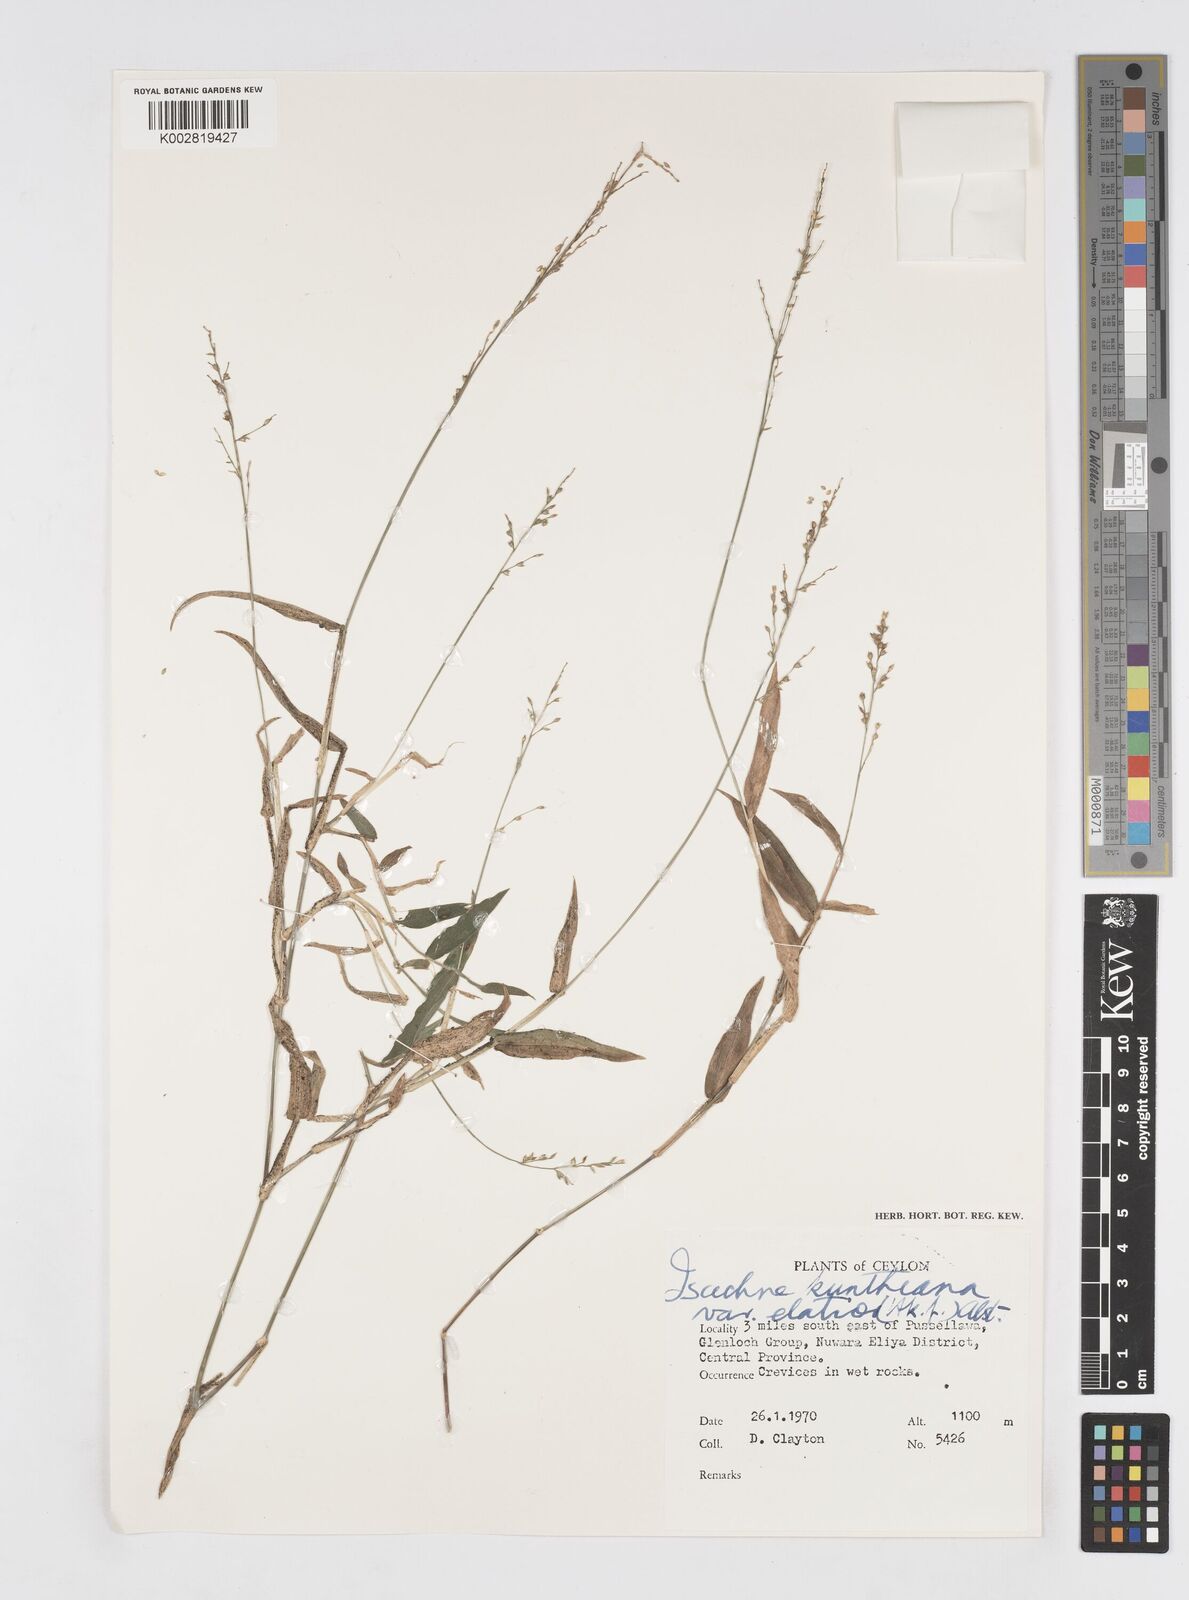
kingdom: Plantae
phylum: Tracheophyta
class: Liliopsida
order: Poales
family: Poaceae
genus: Isachne
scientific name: Isachne kunthiana
